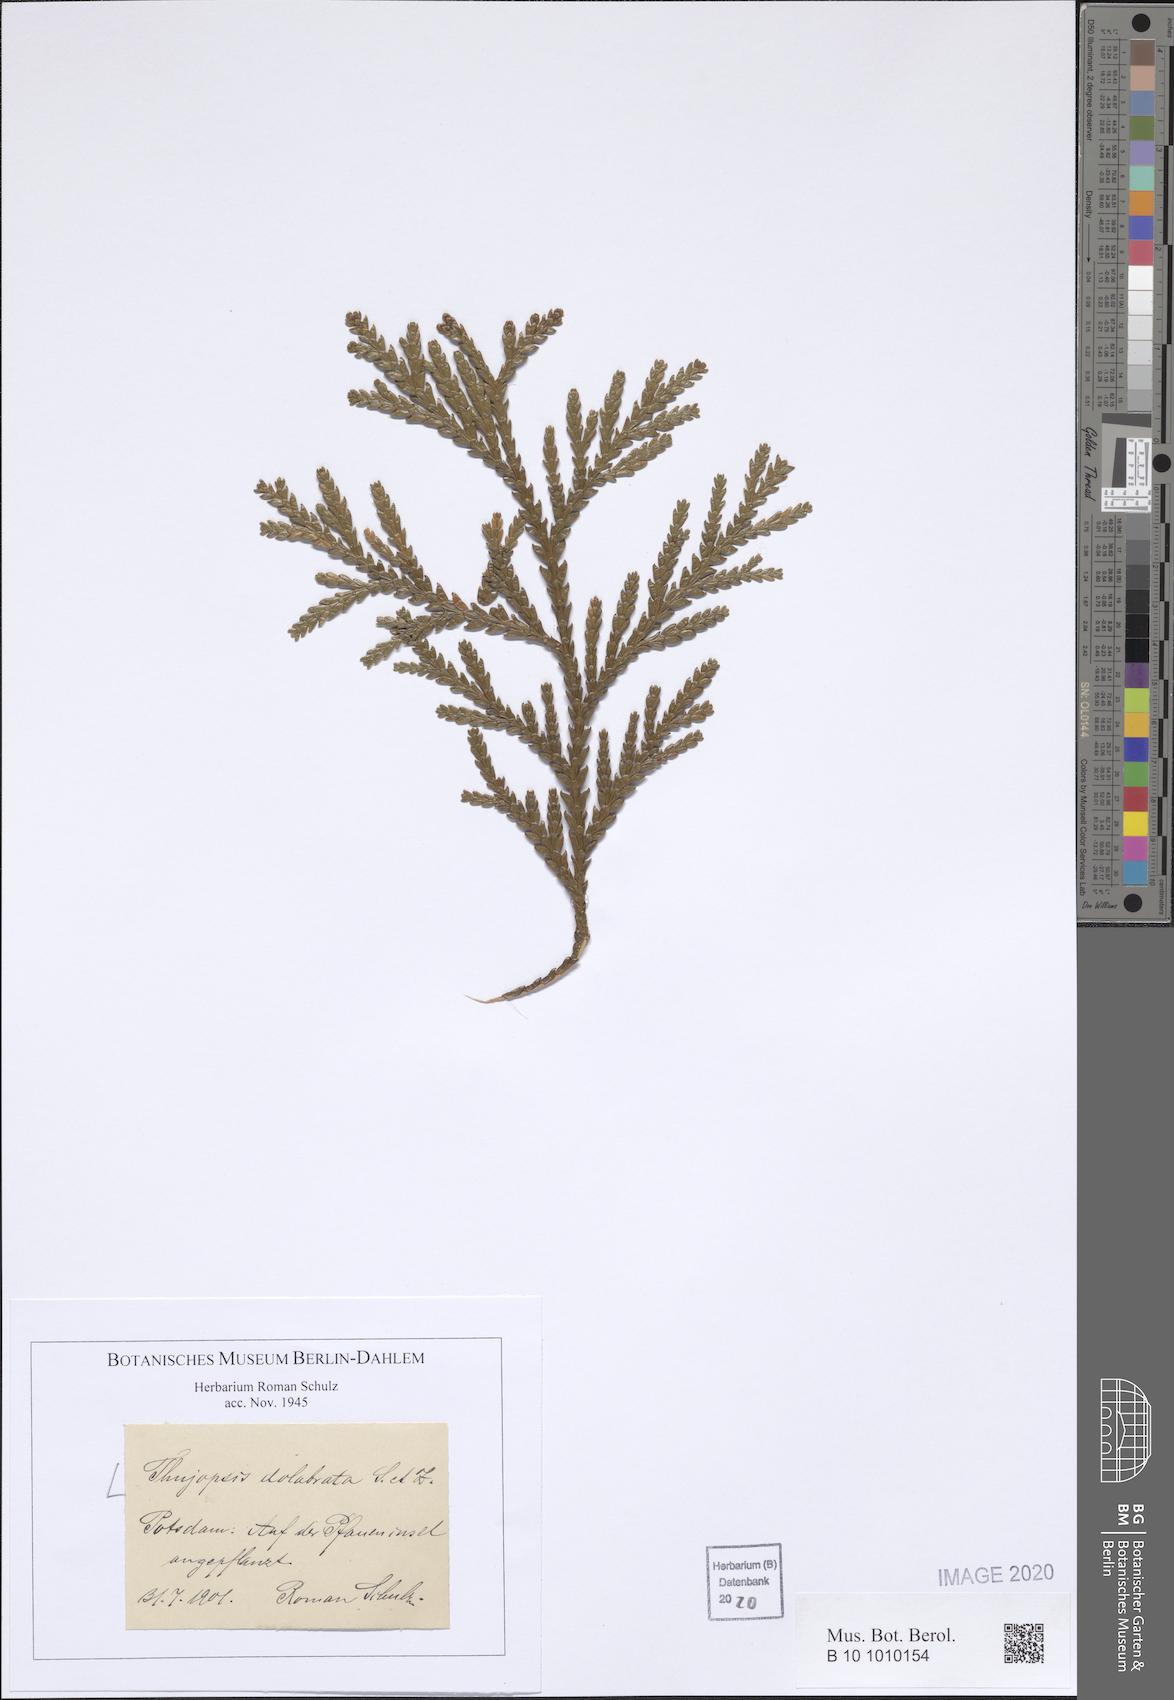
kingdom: Plantae
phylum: Tracheophyta
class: Pinopsida
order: Pinales
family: Cupressaceae
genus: Thujopsis
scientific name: Thujopsis dolabrata
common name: Hiba
